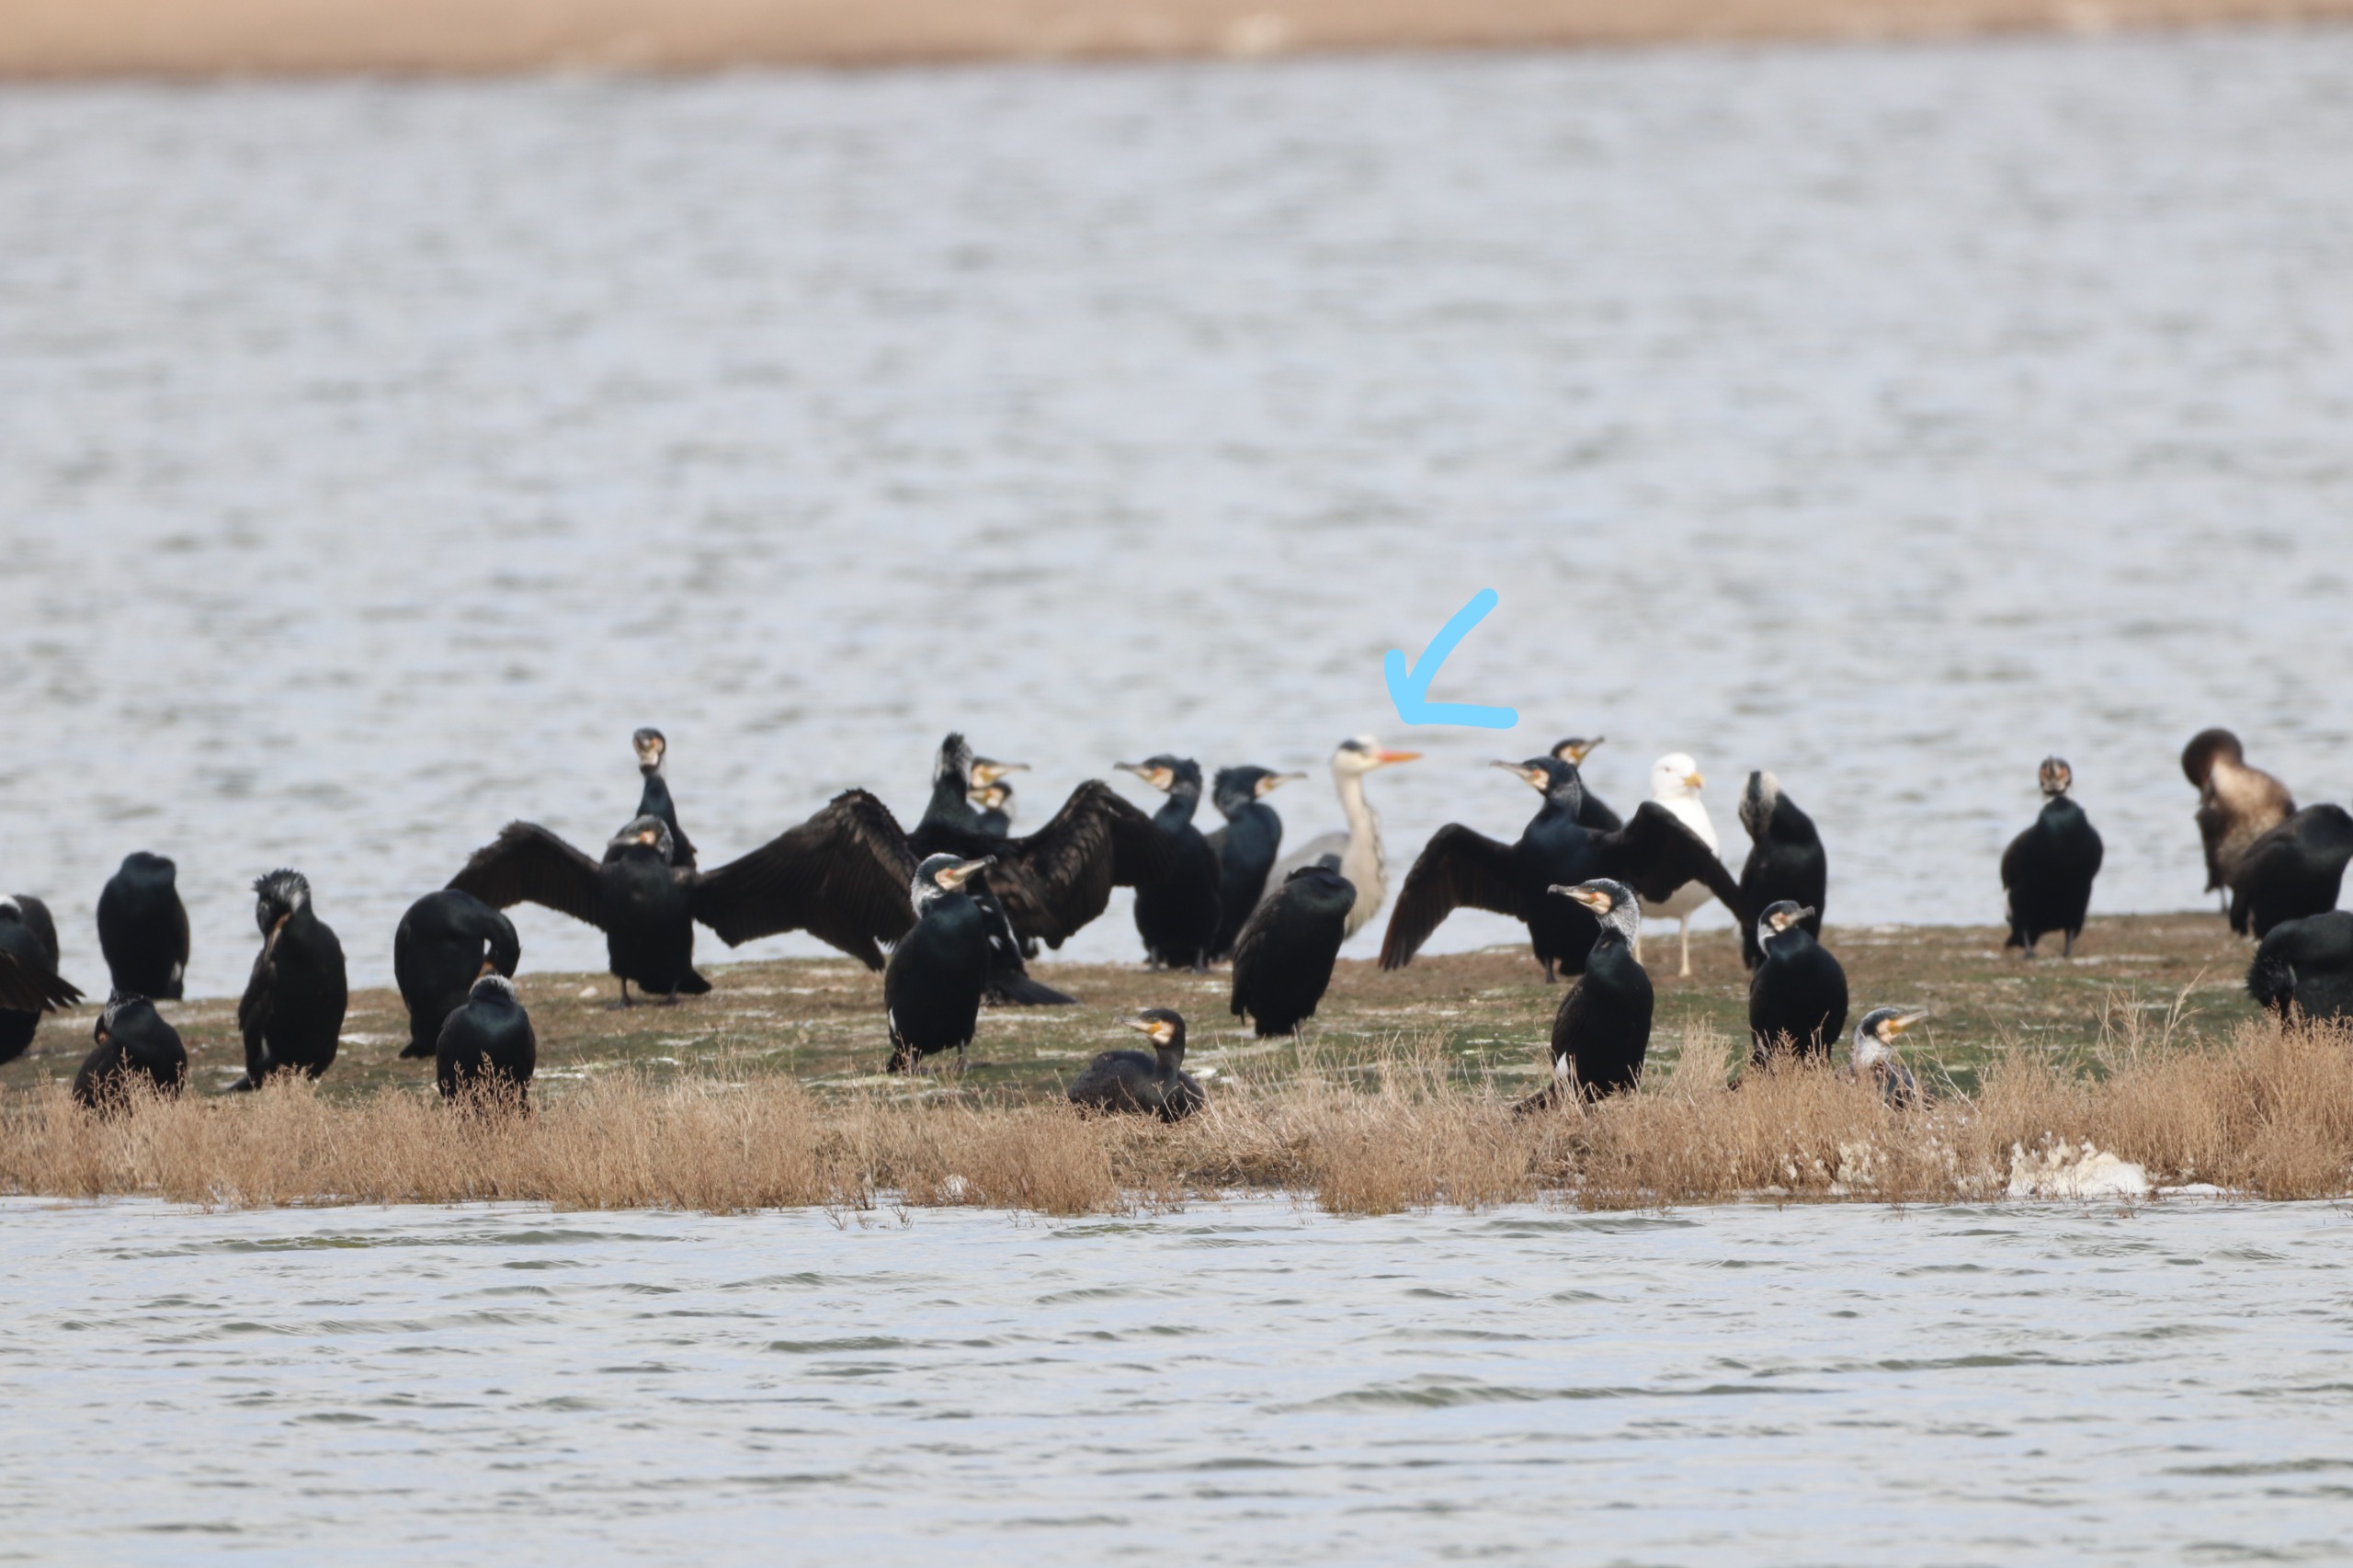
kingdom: Animalia
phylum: Chordata
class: Aves
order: Pelecaniformes
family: Ardeidae
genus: Ardea
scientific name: Ardea cinerea
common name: Fiskehejre
